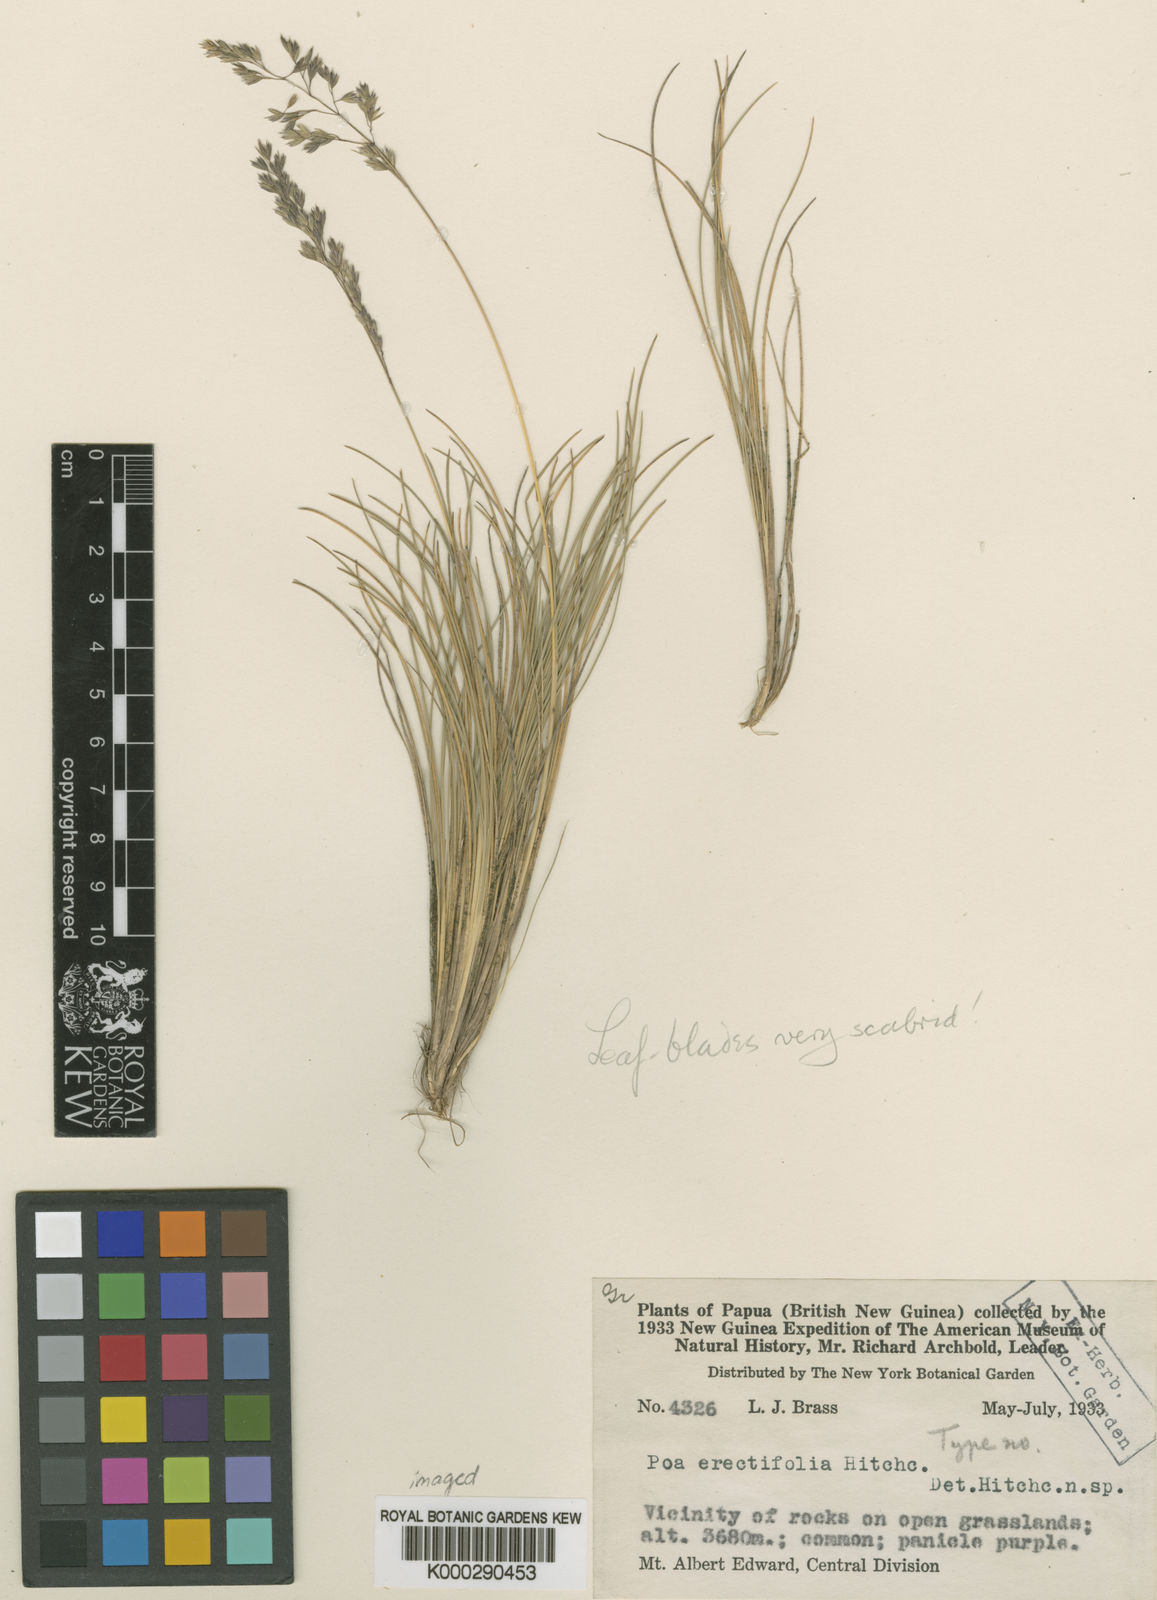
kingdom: Plantae
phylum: Tracheophyta
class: Liliopsida
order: Poales
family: Poaceae
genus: Poa
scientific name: Poa erectifolia
